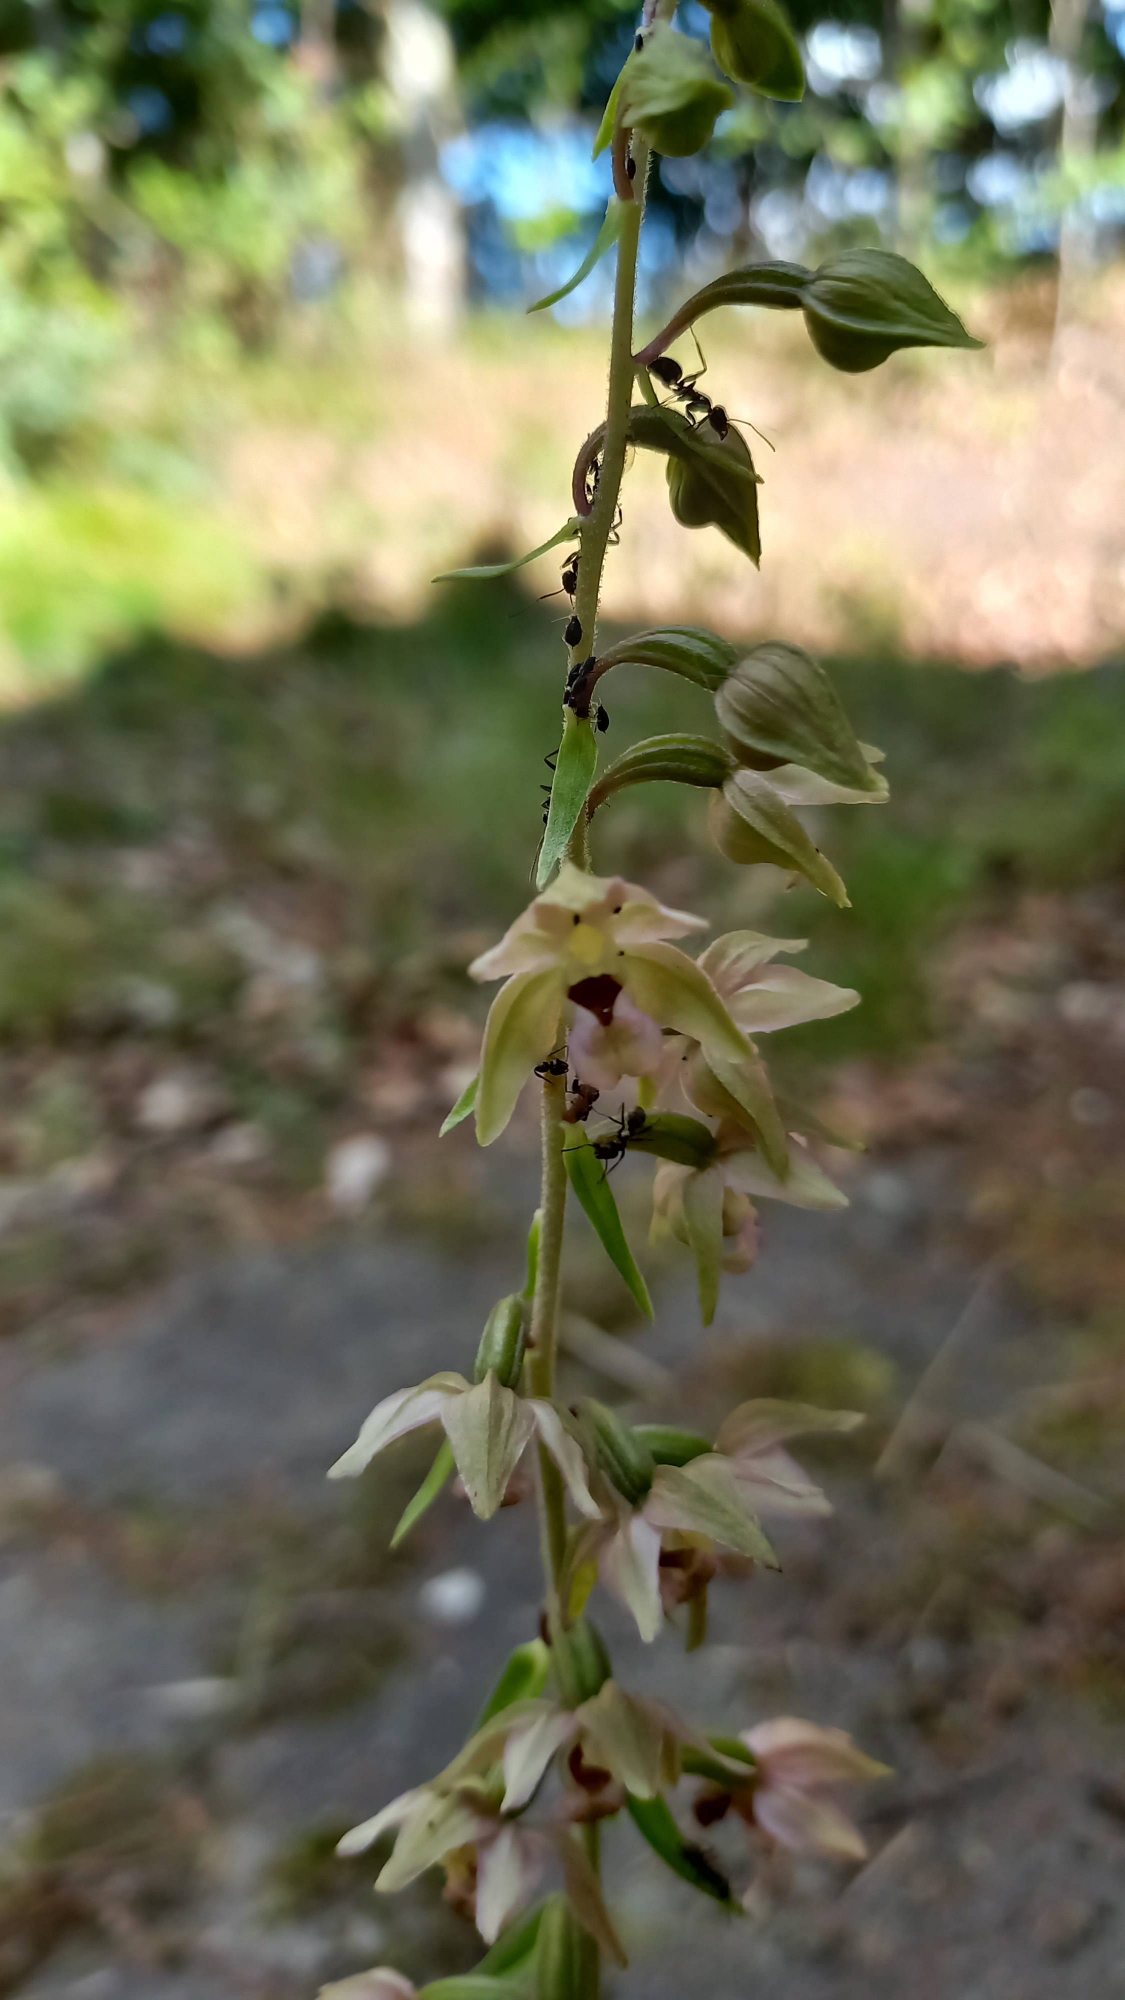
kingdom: Plantae
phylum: Tracheophyta
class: Liliopsida
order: Asparagales
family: Orchidaceae
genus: Epipactis
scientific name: Epipactis helleborine
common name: Skov-hullæbe
